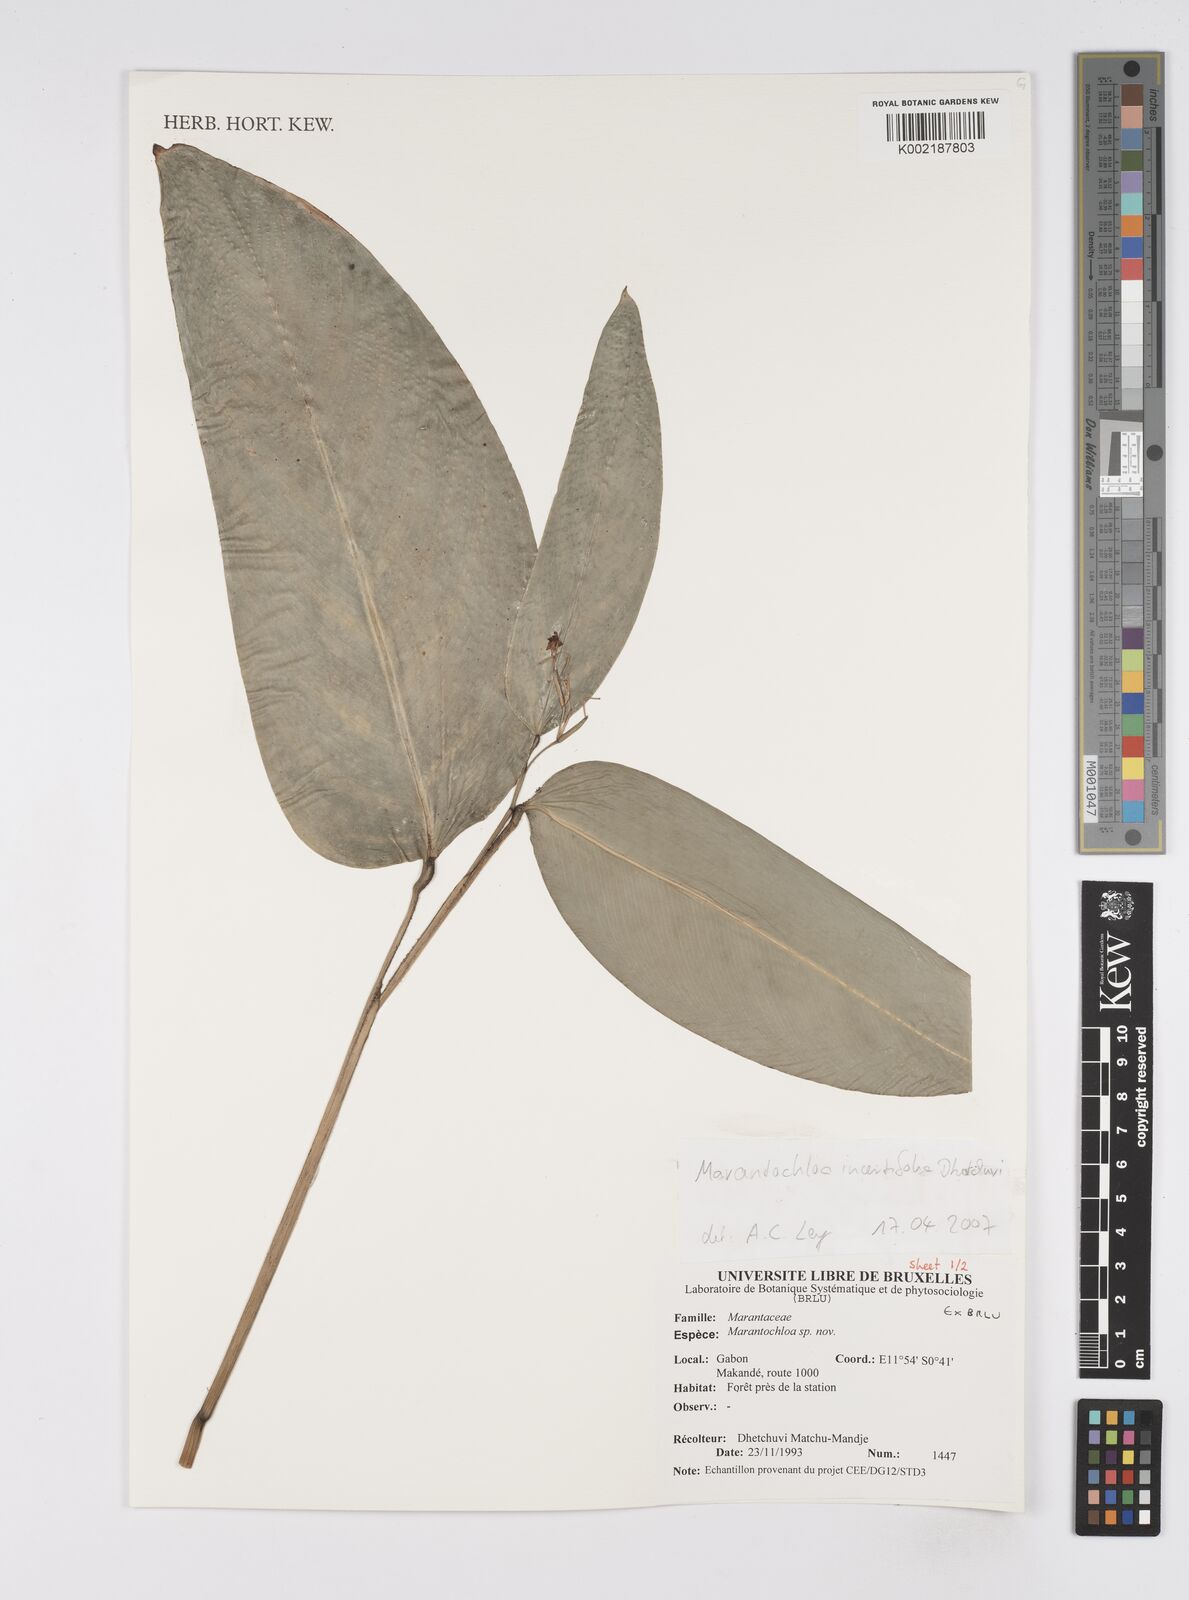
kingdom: Plantae
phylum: Tracheophyta
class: Liliopsida
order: Zingiberales
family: Marantaceae
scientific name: Marantaceae
